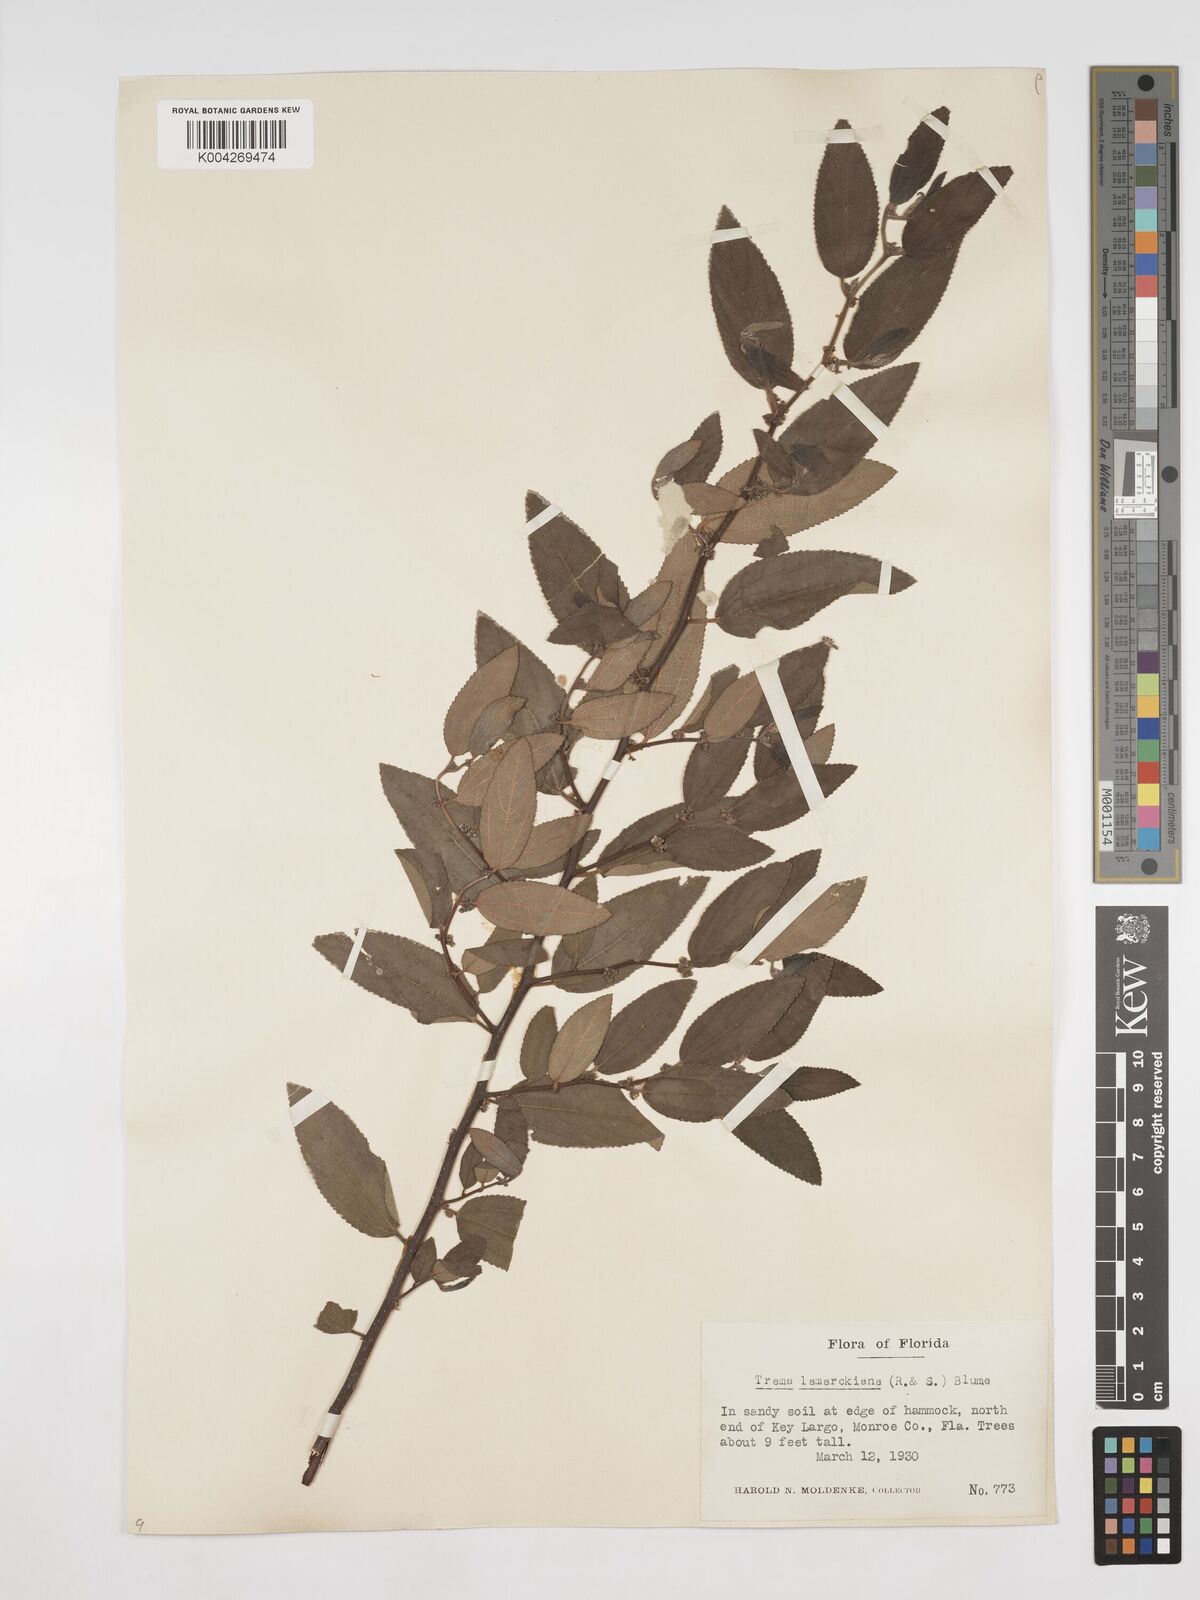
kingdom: Plantae
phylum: Tracheophyta
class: Magnoliopsida
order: Rosales
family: Cannabaceae
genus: Trema
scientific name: Trema lamarckianum
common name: Lamarck's trema
